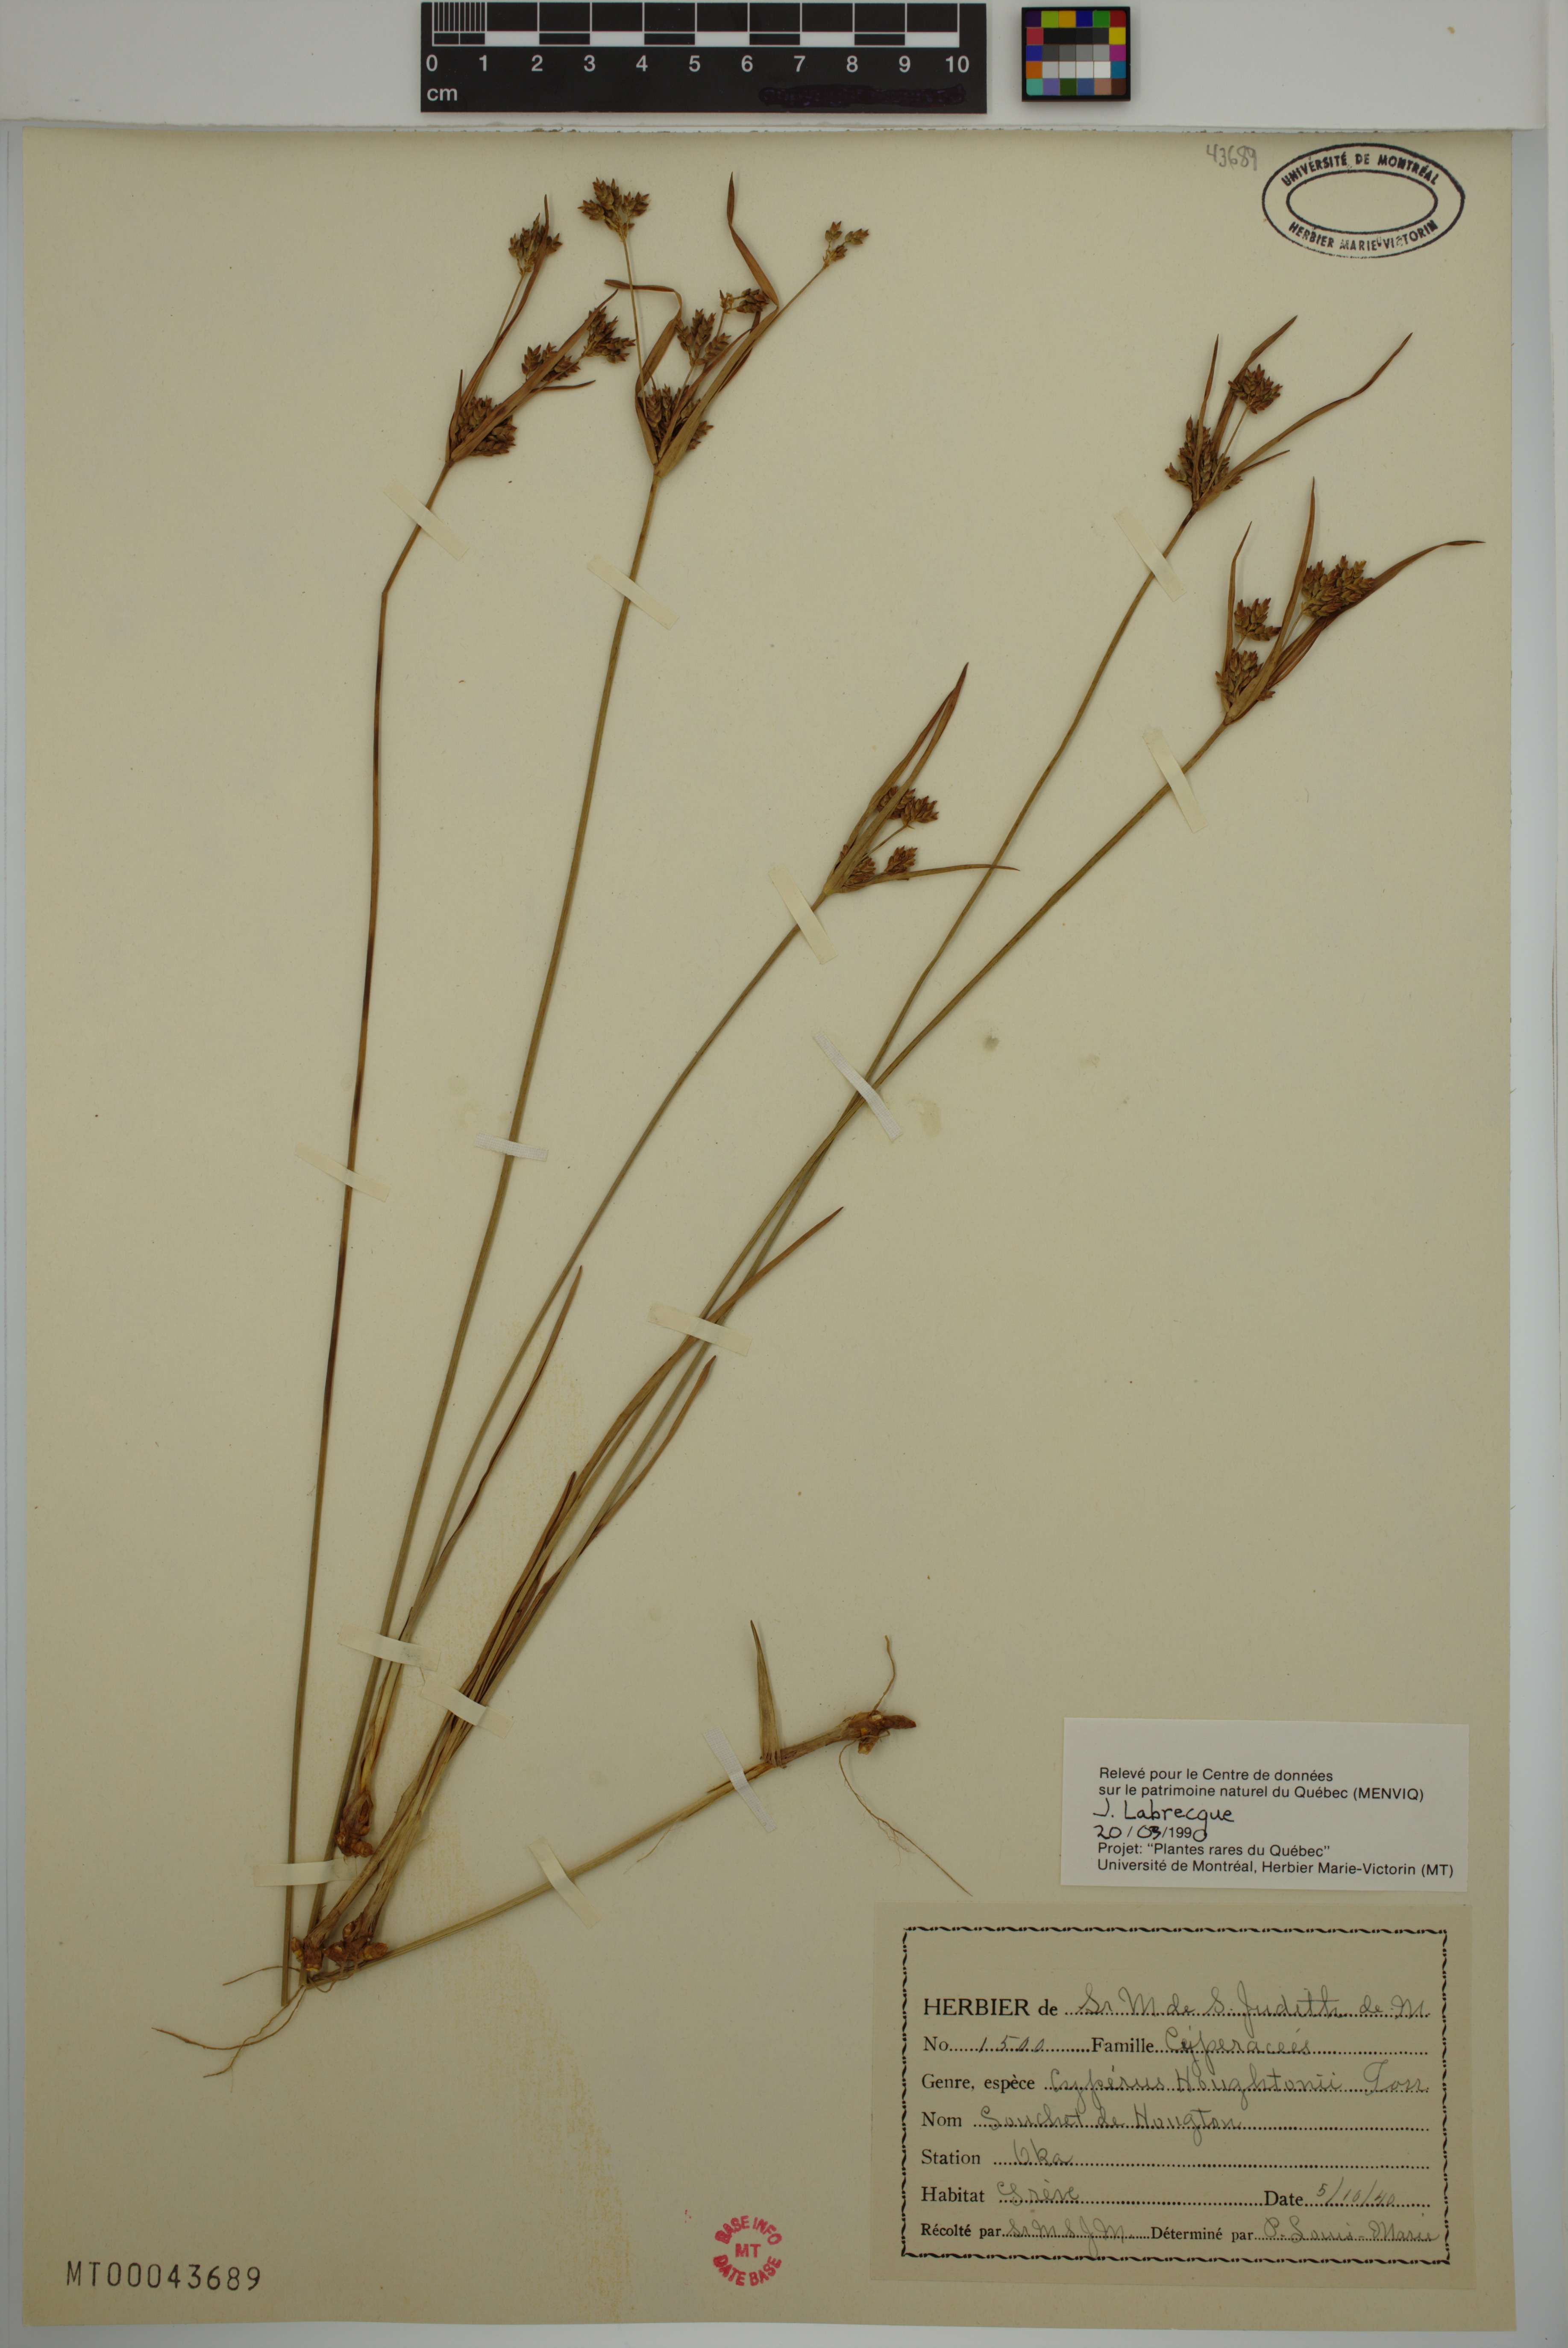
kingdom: Plantae
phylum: Tracheophyta
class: Liliopsida
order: Poales
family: Cyperaceae
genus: Cyperus
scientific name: Cyperus houghtonii
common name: Houghton's cyperus
